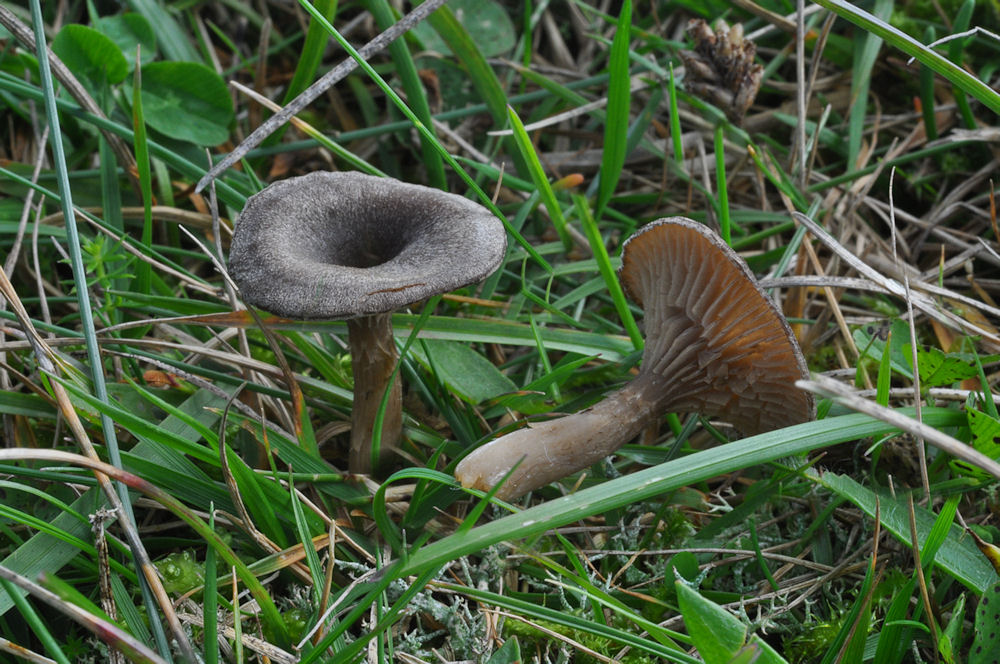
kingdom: Fungi
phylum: Basidiomycota
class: Agaricomycetes
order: Agaricales
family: Entolomataceae
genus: Entoloma
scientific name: Entoloma undatum
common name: bæltet rødblad
